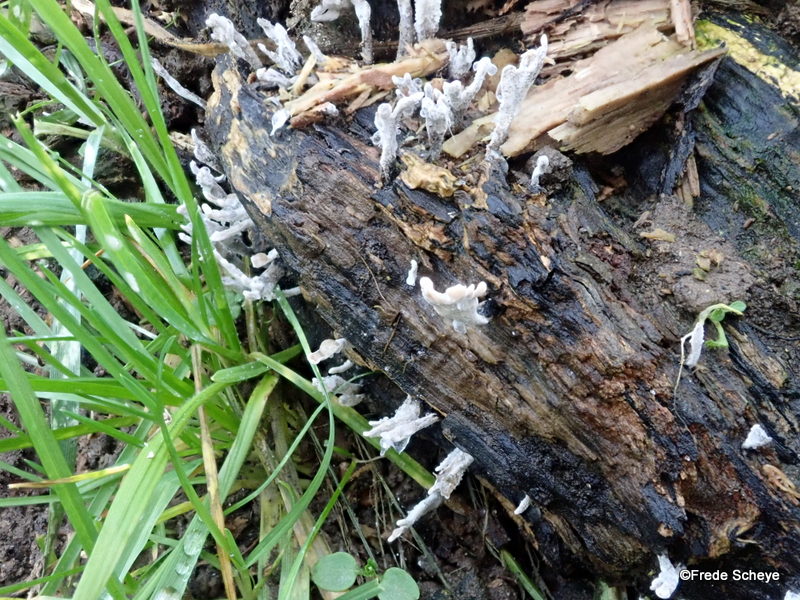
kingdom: Fungi
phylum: Ascomycota
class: Sordariomycetes
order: Xylariales
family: Xylariaceae
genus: Xylaria
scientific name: Xylaria hypoxylon
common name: grenet stødsvamp
